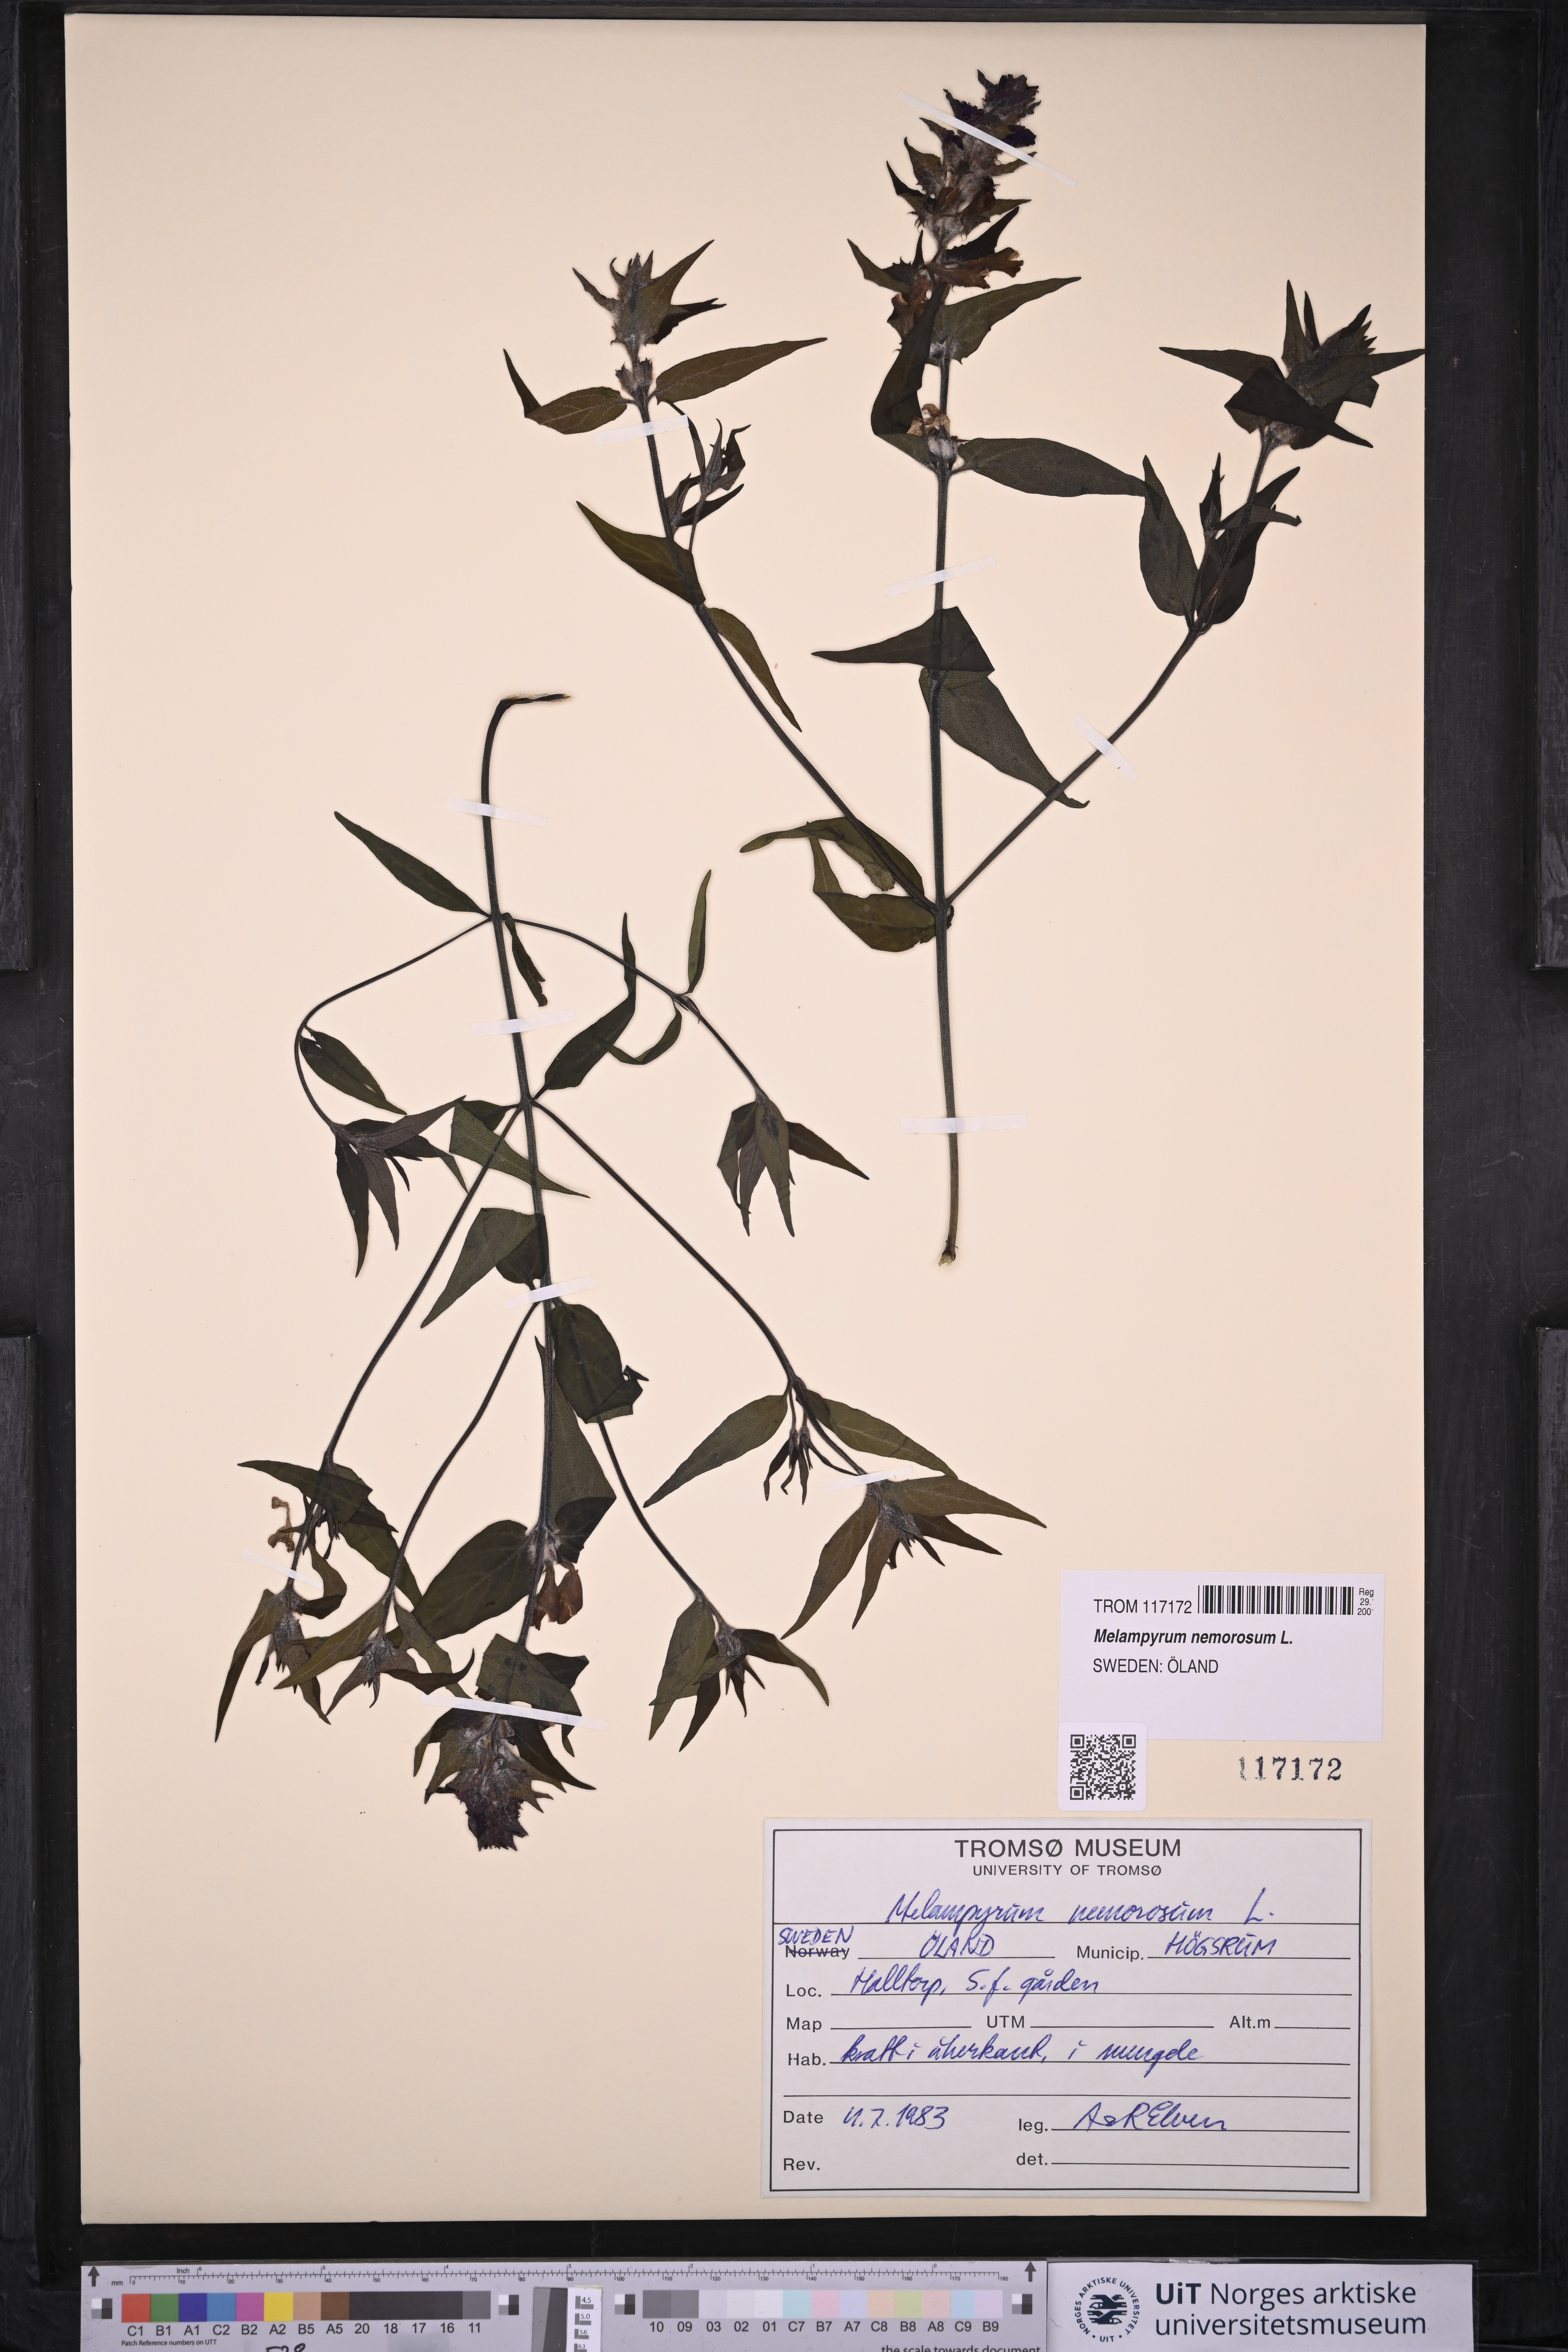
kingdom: Plantae
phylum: Tracheophyta
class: Magnoliopsida
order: Lamiales
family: Orobanchaceae
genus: Melampyrum
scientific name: Melampyrum nemorosum
